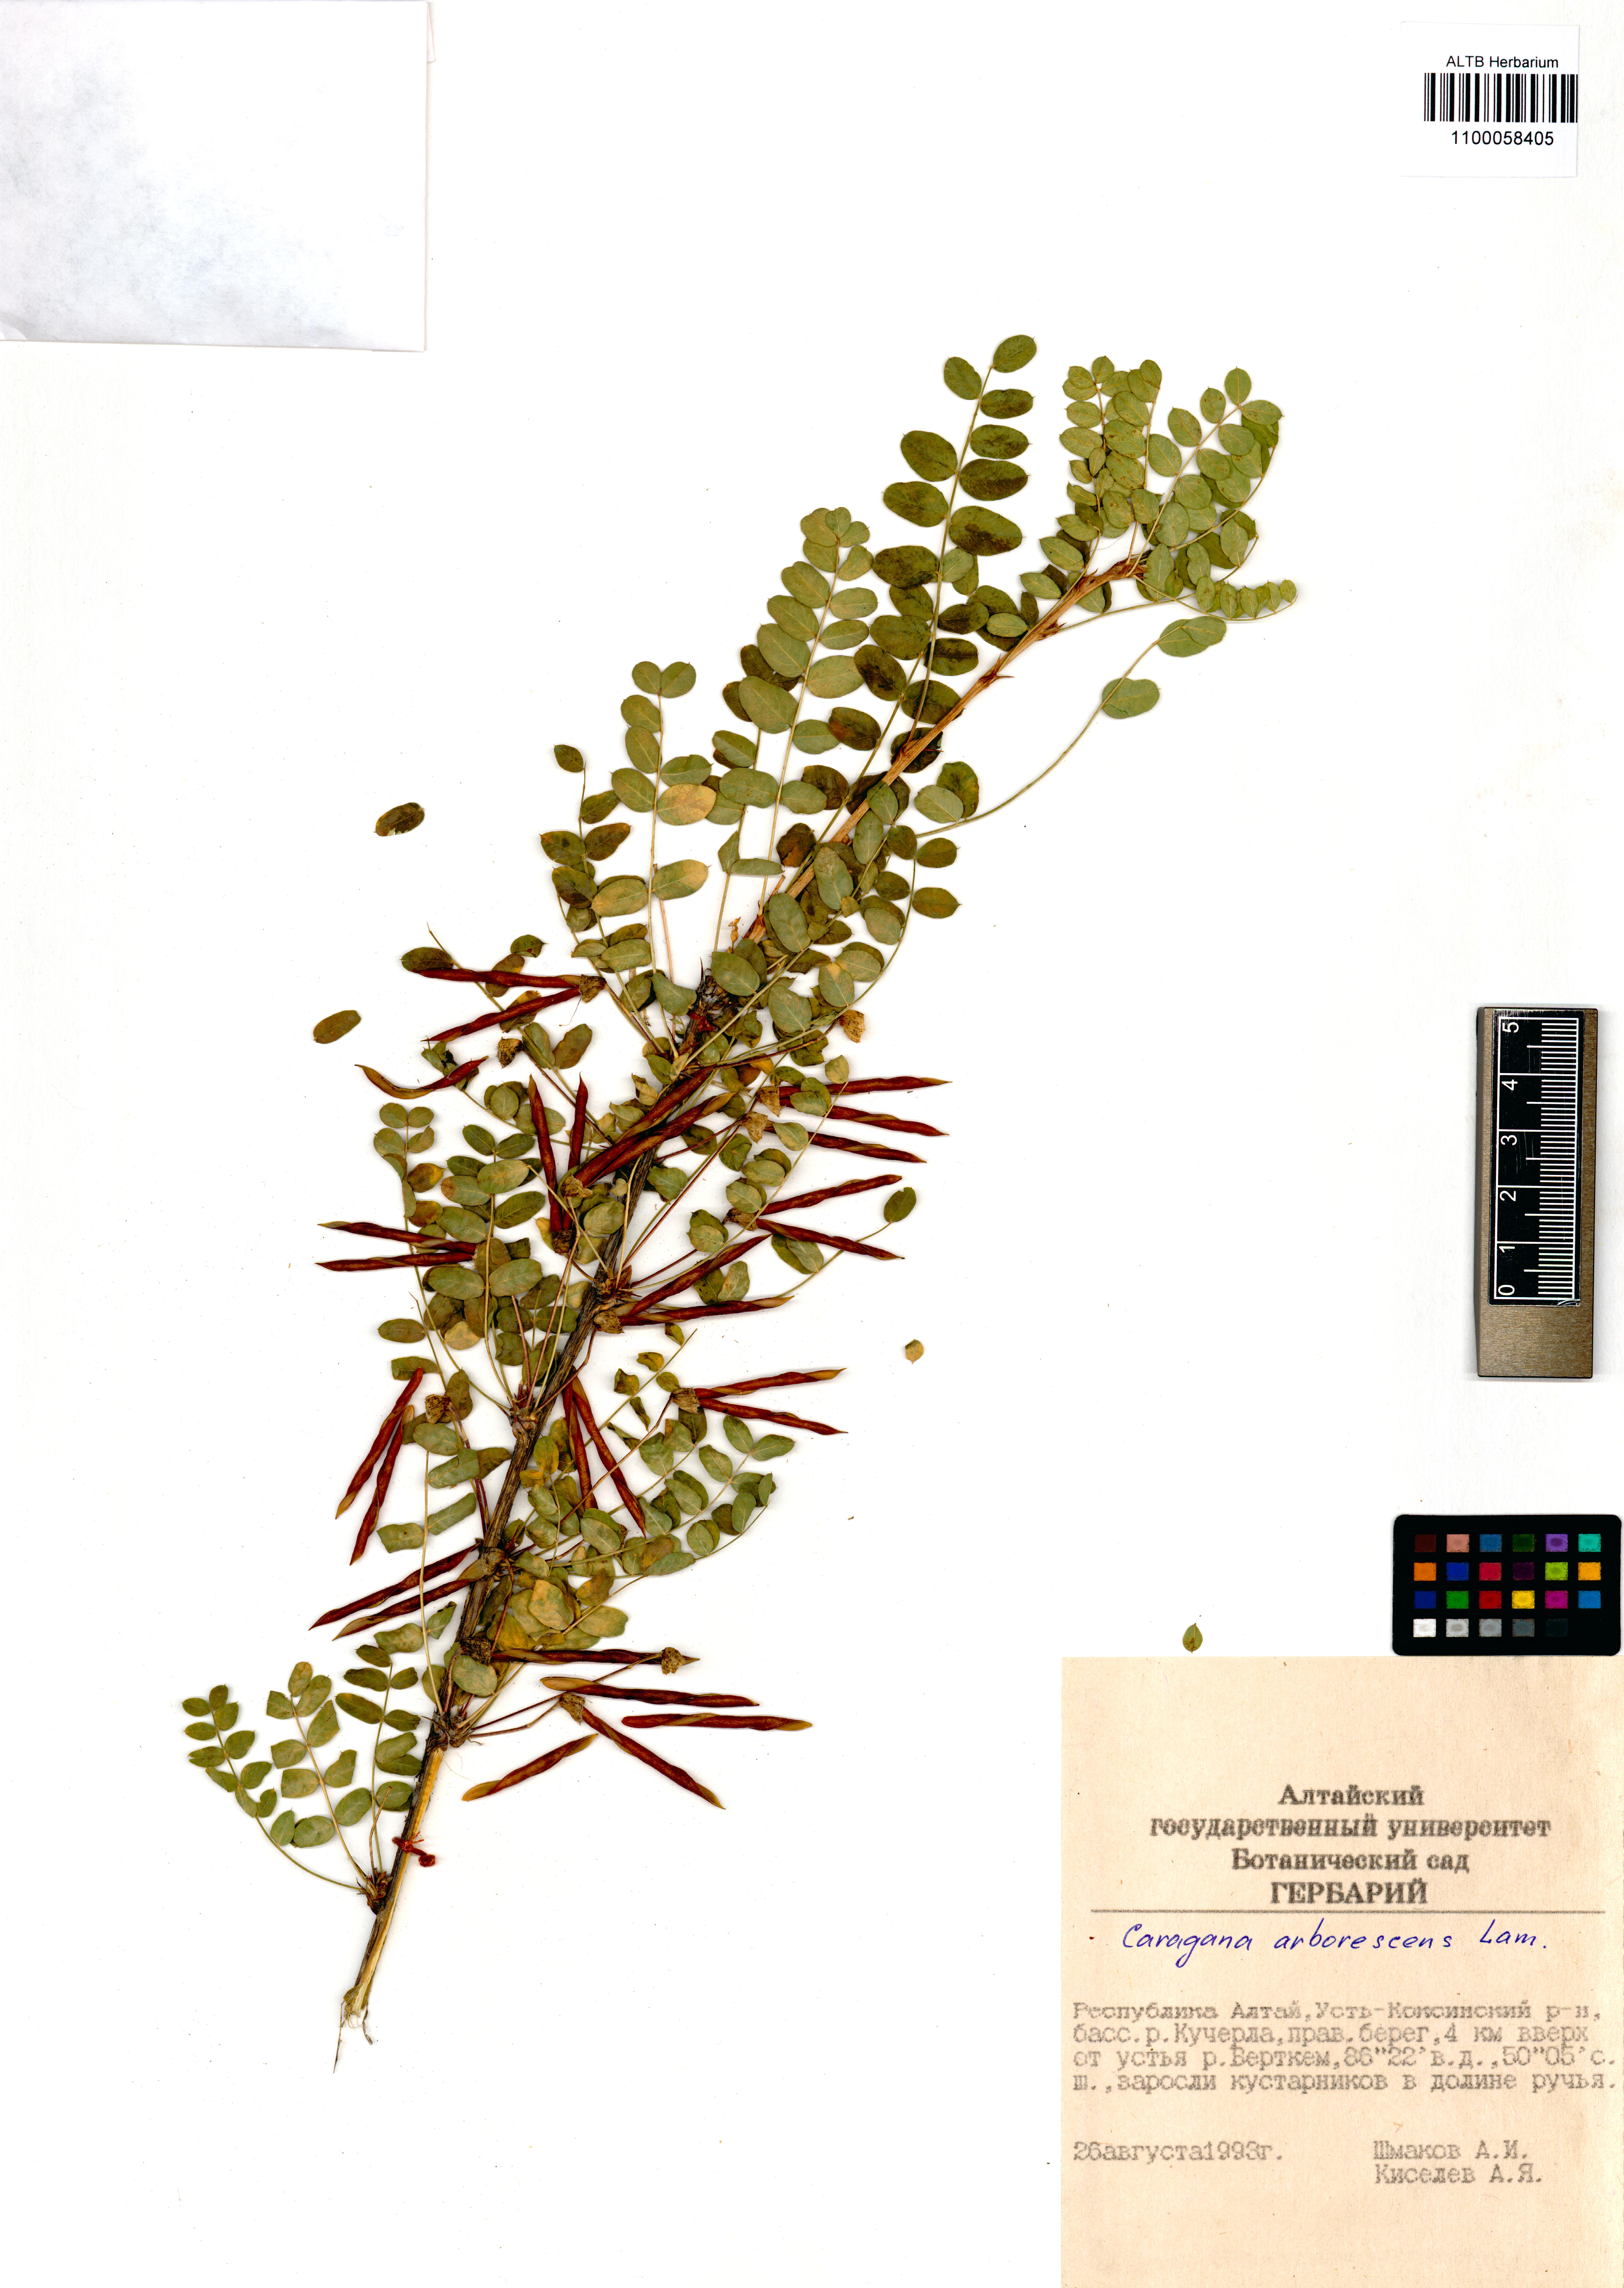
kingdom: Plantae
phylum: Tracheophyta
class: Magnoliopsida
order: Fabales
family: Fabaceae
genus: Caragana
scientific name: Caragana arborescens
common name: Siberian peashrub
